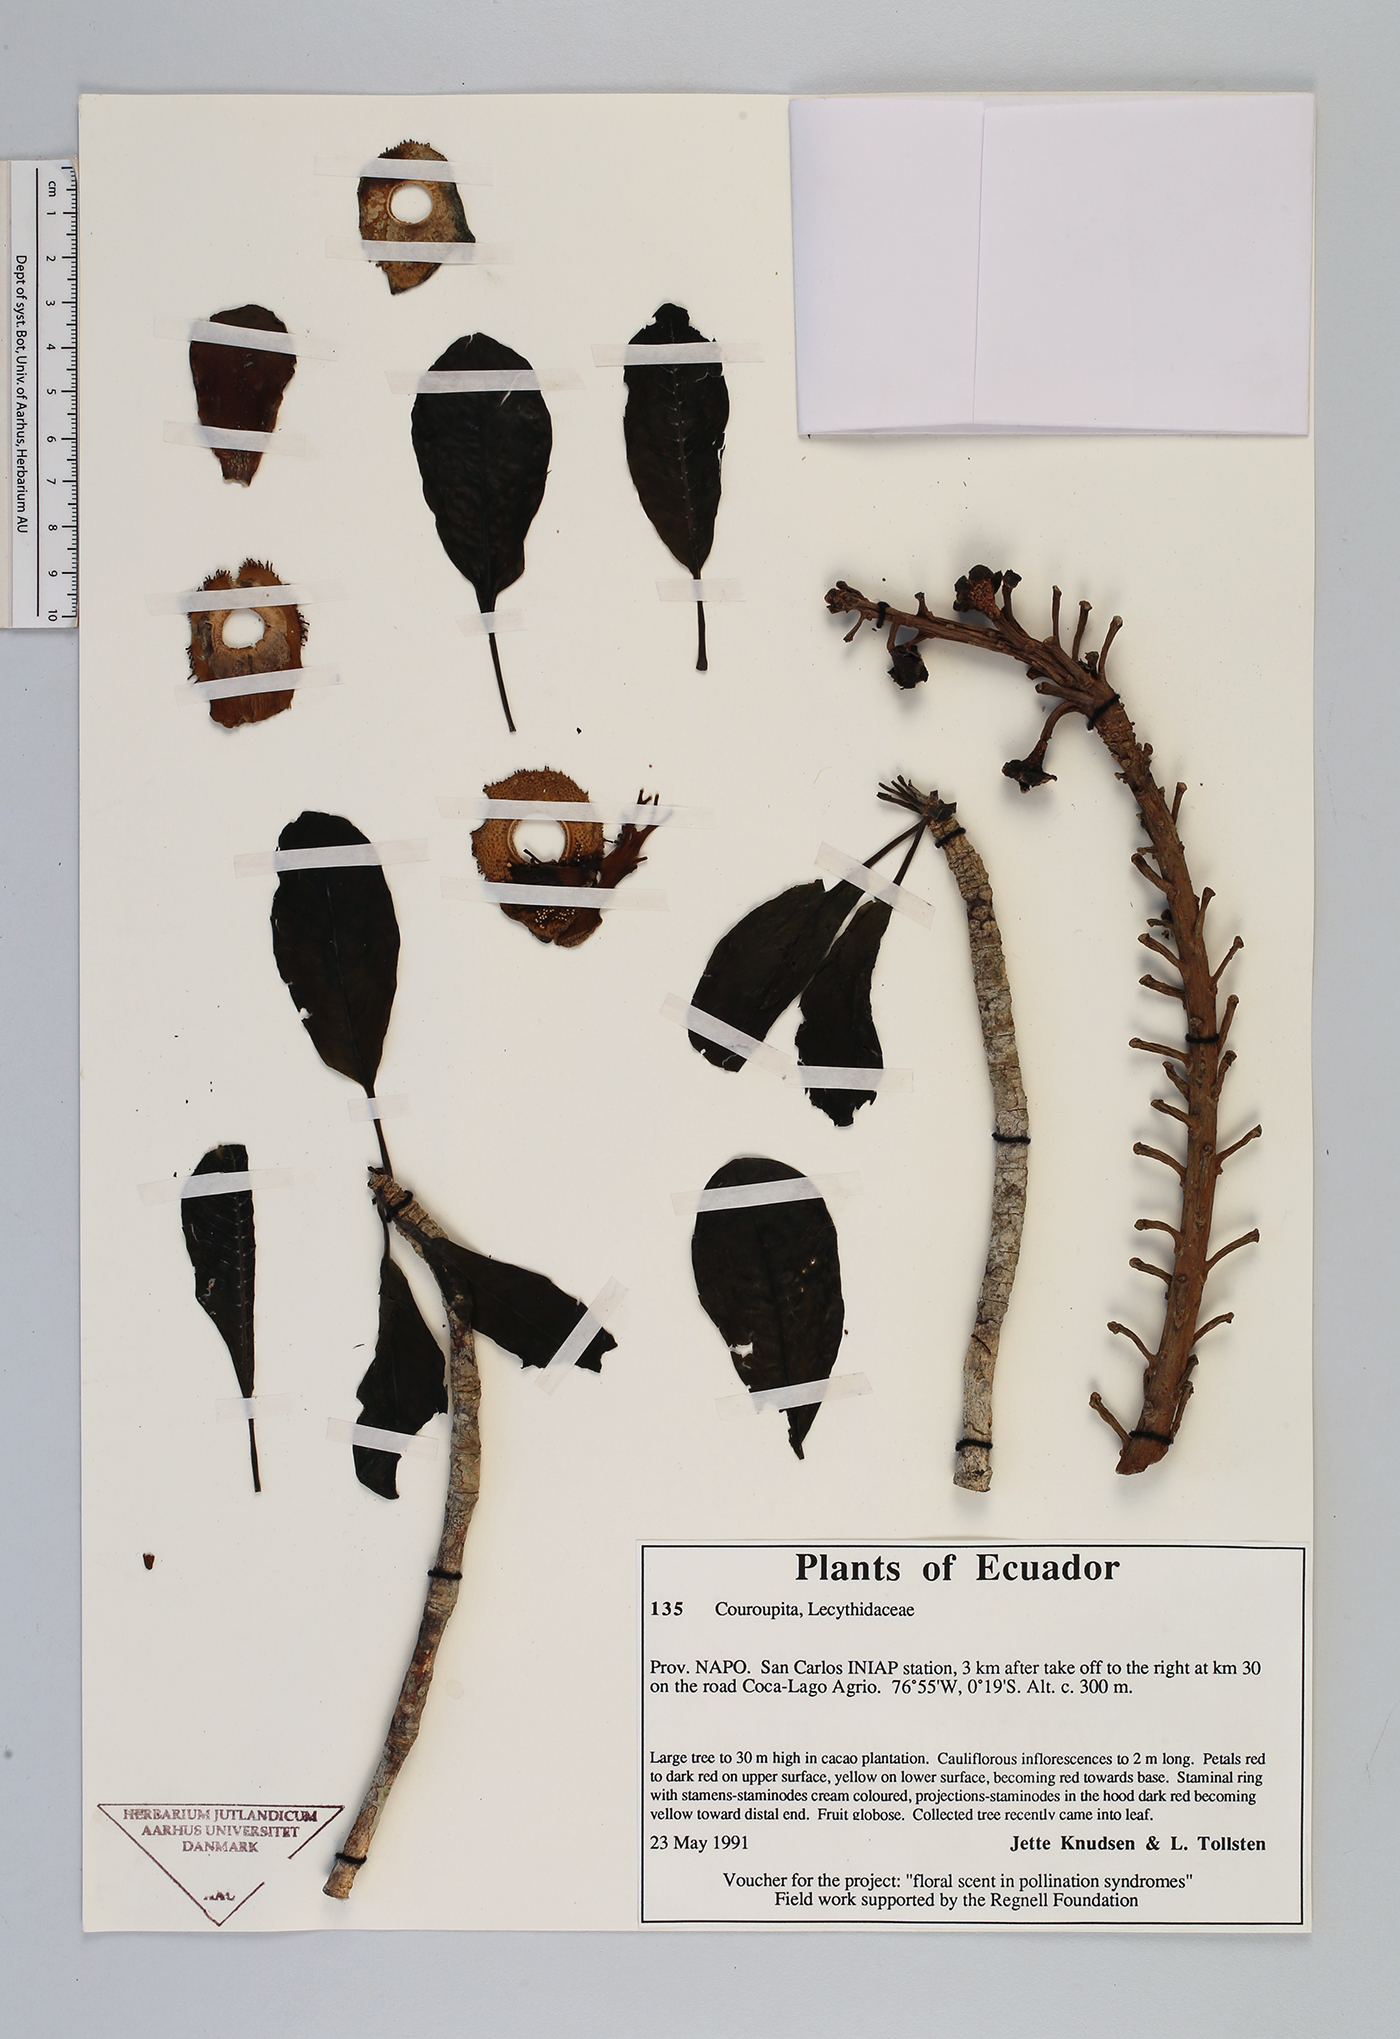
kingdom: Plantae
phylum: Tracheophyta
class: Magnoliopsida
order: Ericales
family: Lecythidaceae
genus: Couroupita
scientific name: Couroupita
